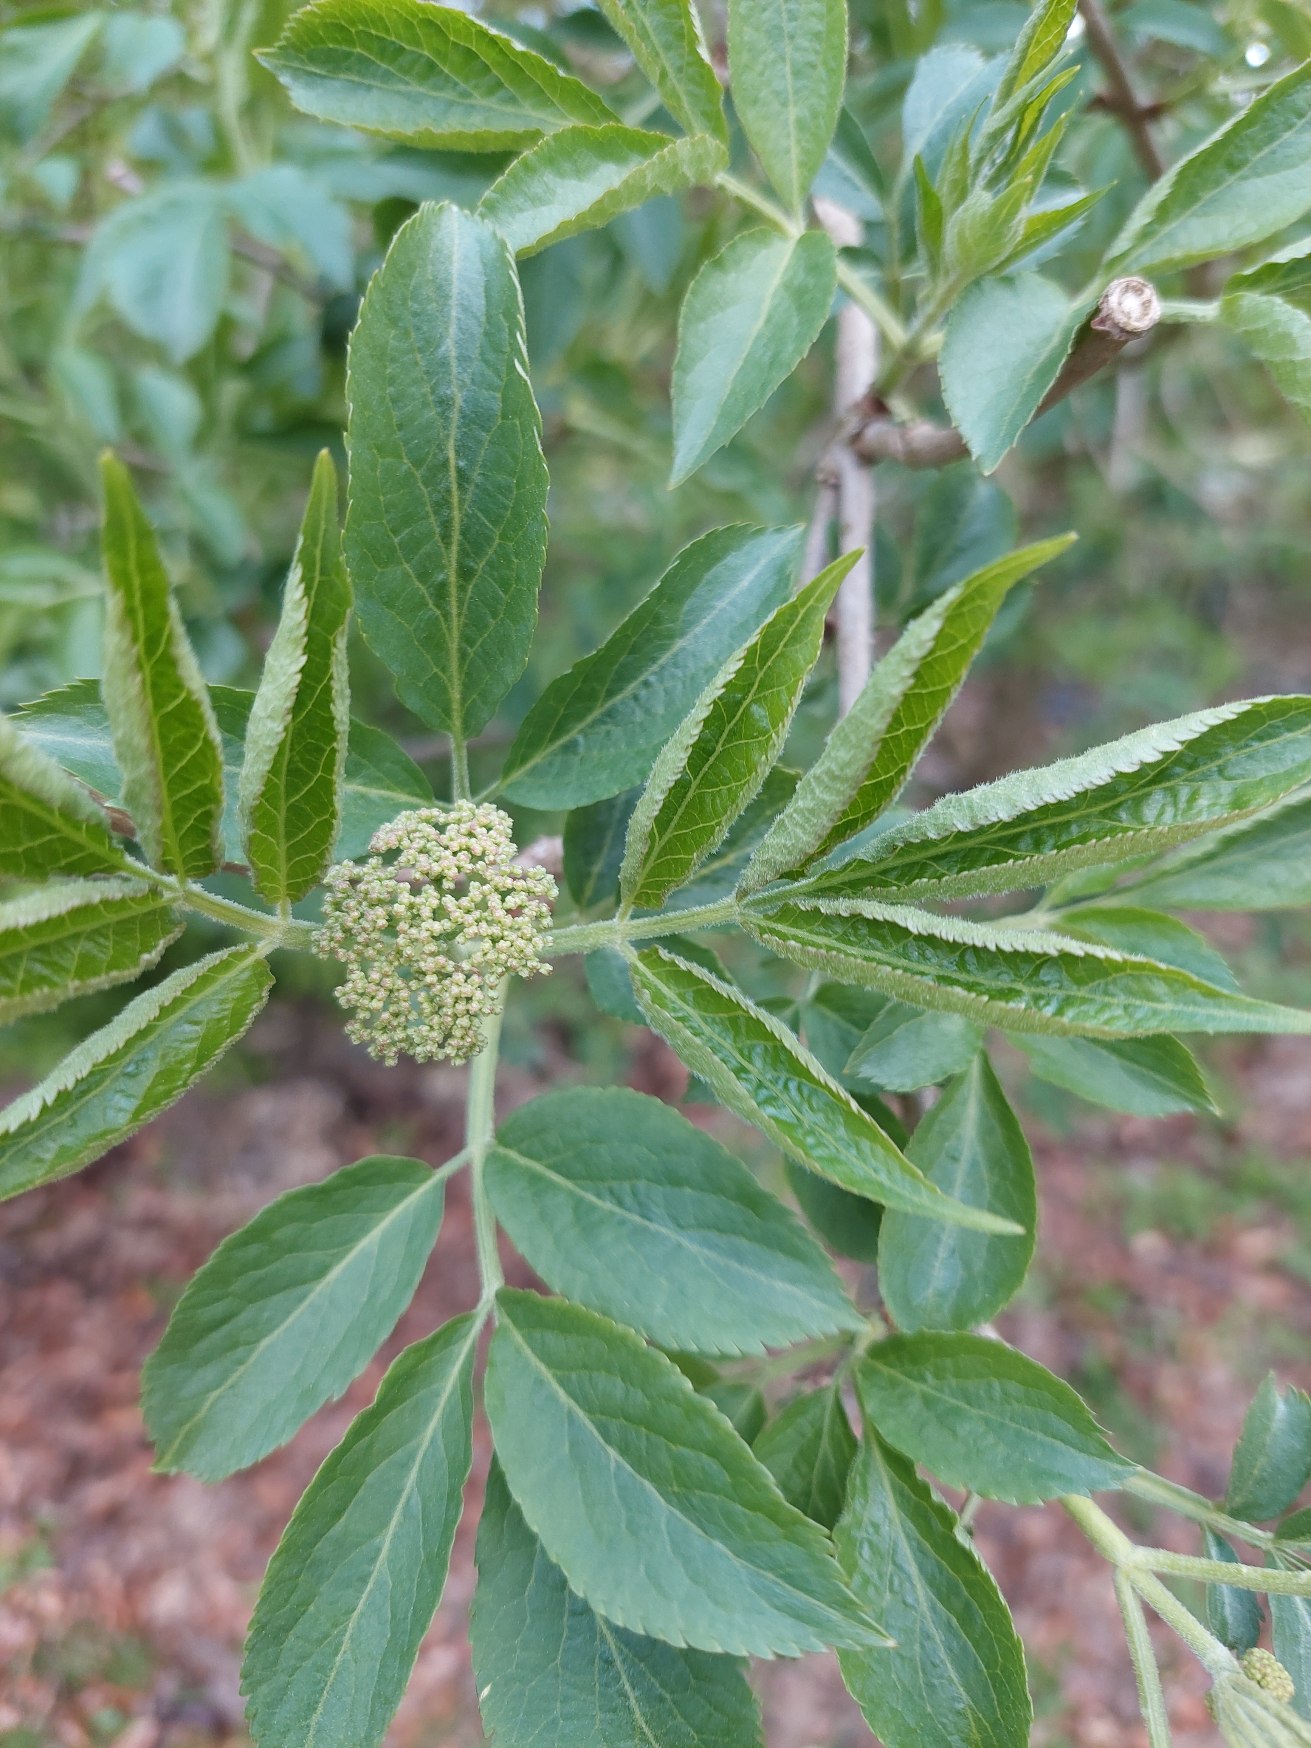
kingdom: Plantae
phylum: Tracheophyta
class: Magnoliopsida
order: Dipsacales
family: Viburnaceae
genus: Sambucus
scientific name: Sambucus nigra
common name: Almindelig hyld
